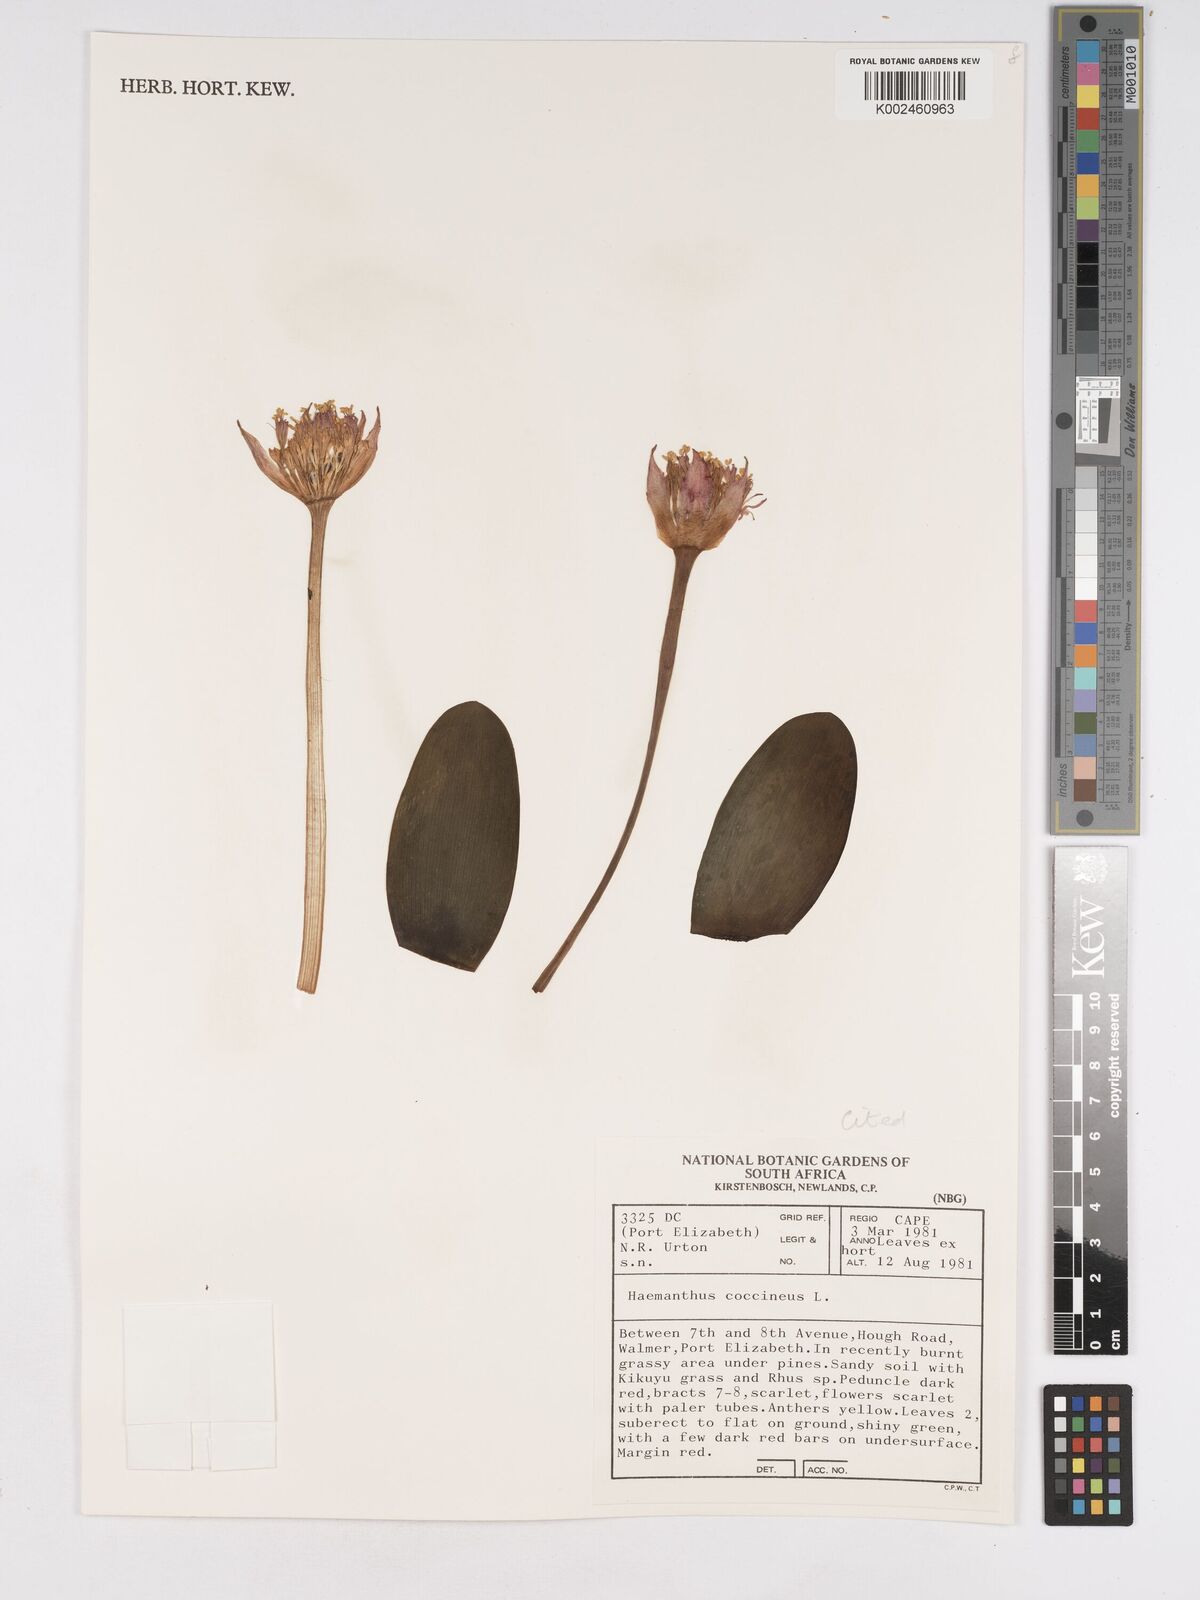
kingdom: Plantae
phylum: Tracheophyta
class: Liliopsida
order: Asparagales
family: Amaryllidaceae
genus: Haemanthus
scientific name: Haemanthus coccineus
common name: Cape-tulip
